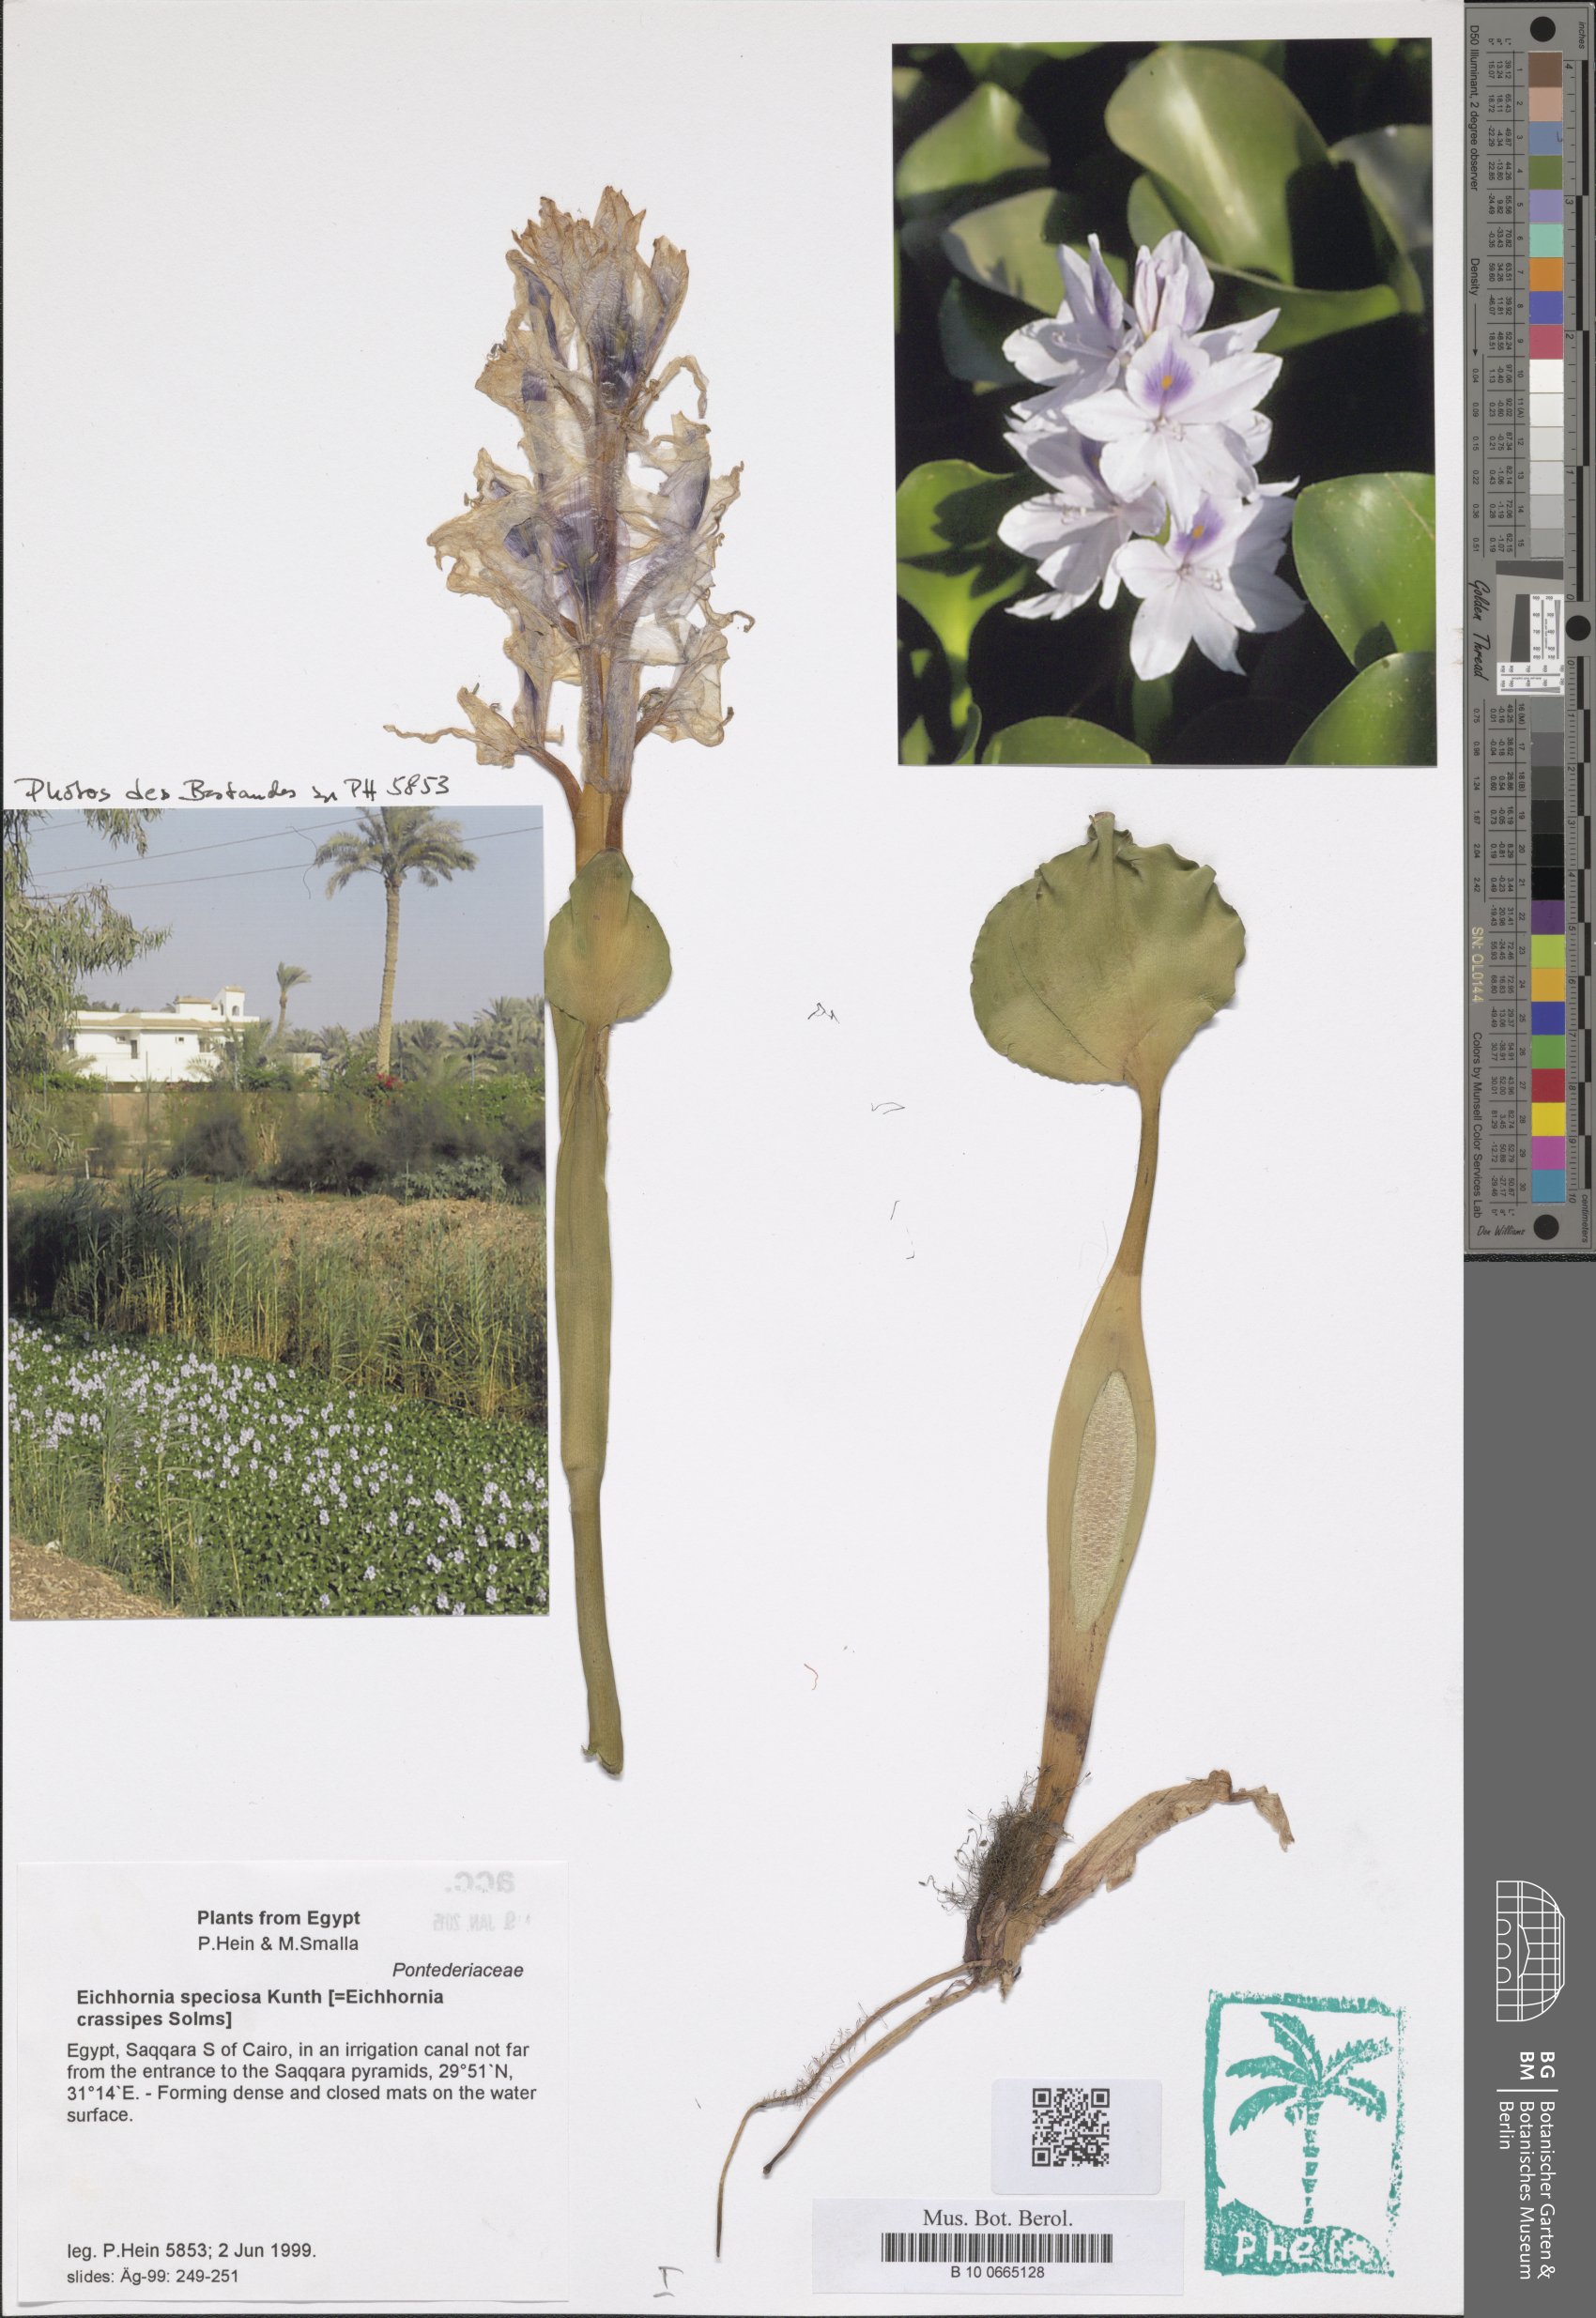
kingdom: Plantae
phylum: Tracheophyta
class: Liliopsida
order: Commelinales
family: Pontederiaceae
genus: Pontederia
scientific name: Pontederia crassipes
